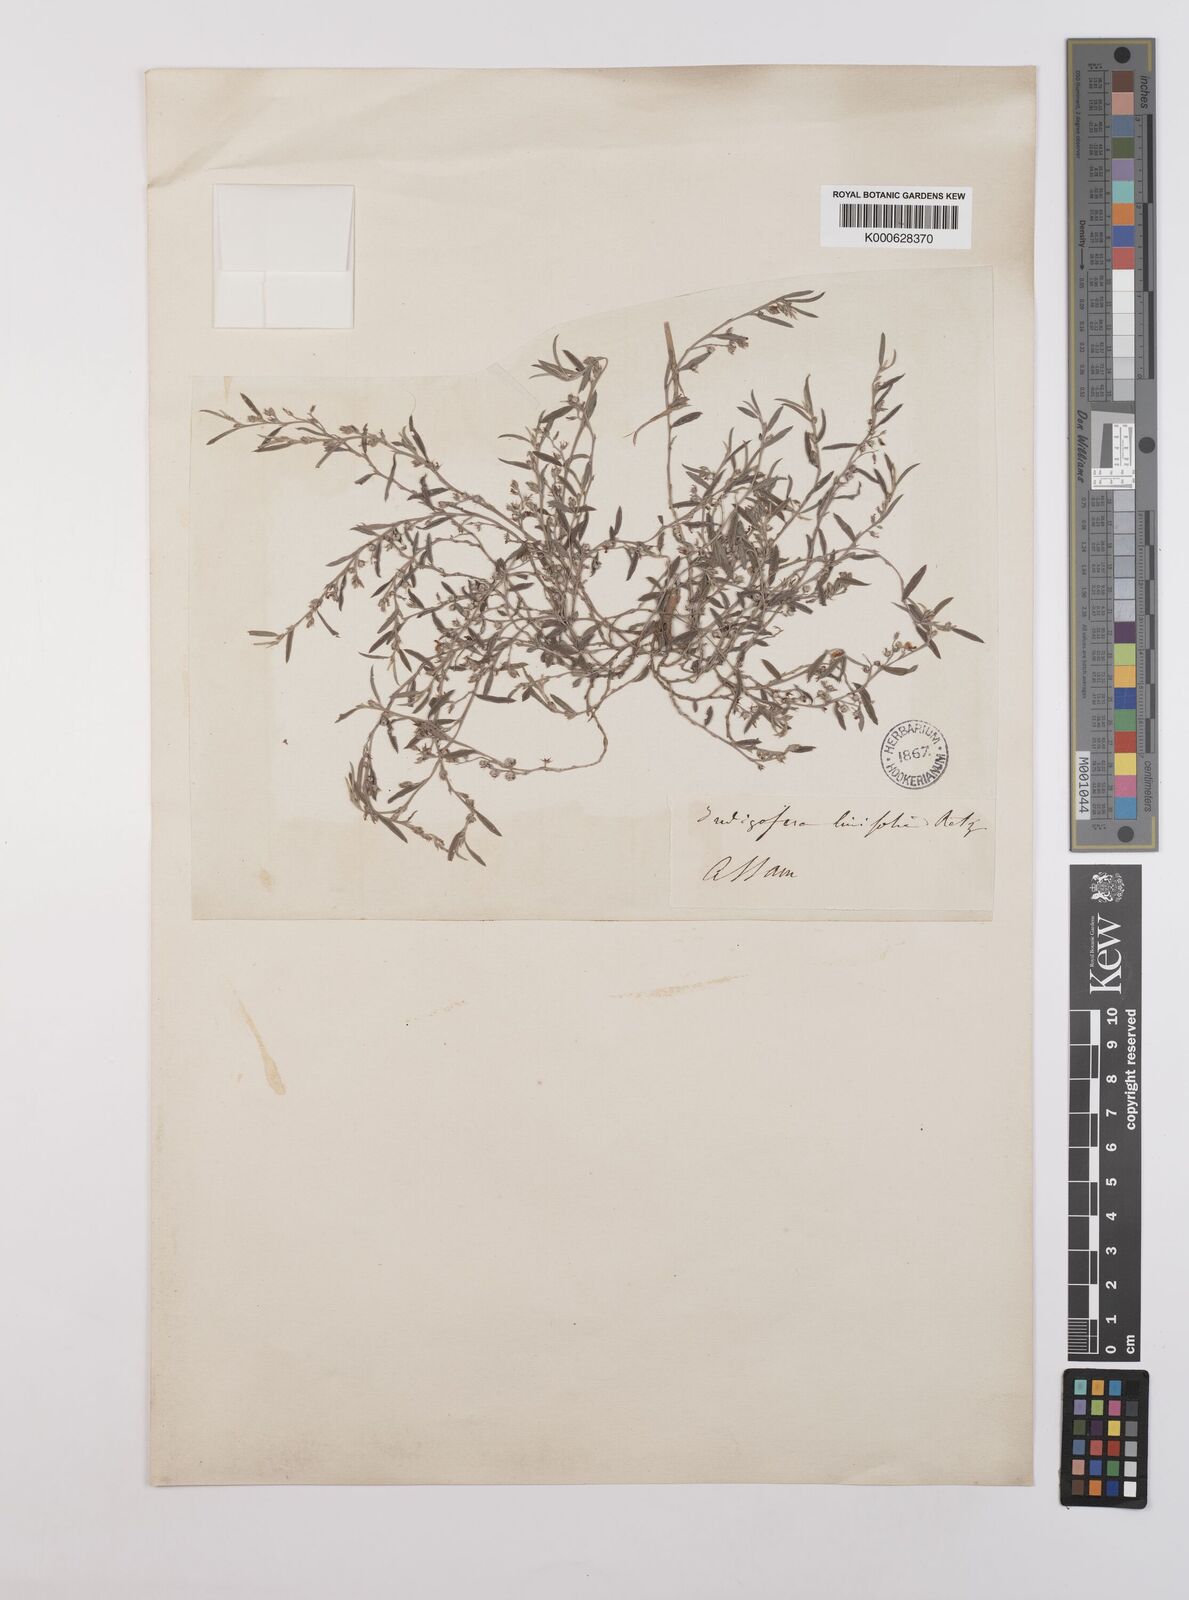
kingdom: Plantae
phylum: Tracheophyta
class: Magnoliopsida
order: Fabales
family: Fabaceae
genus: Indigofera
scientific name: Indigofera linifolia
